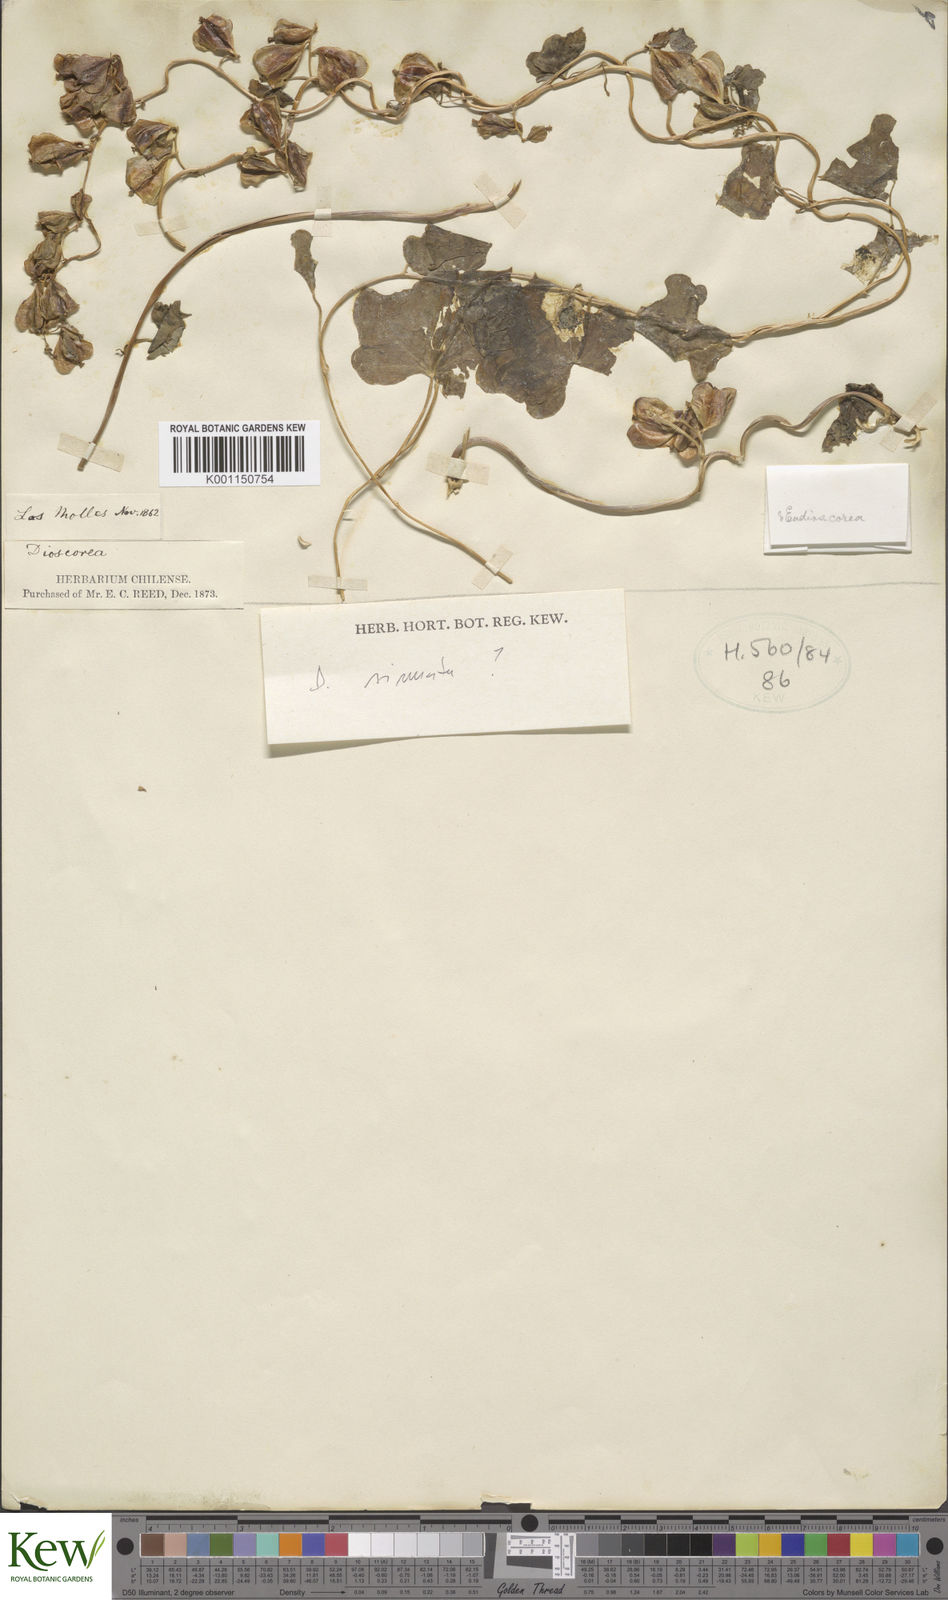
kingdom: Plantae
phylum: Tracheophyta
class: Liliopsida
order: Dioscoreales
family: Dioscoreaceae
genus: Dioscorea
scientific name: Dioscorea
